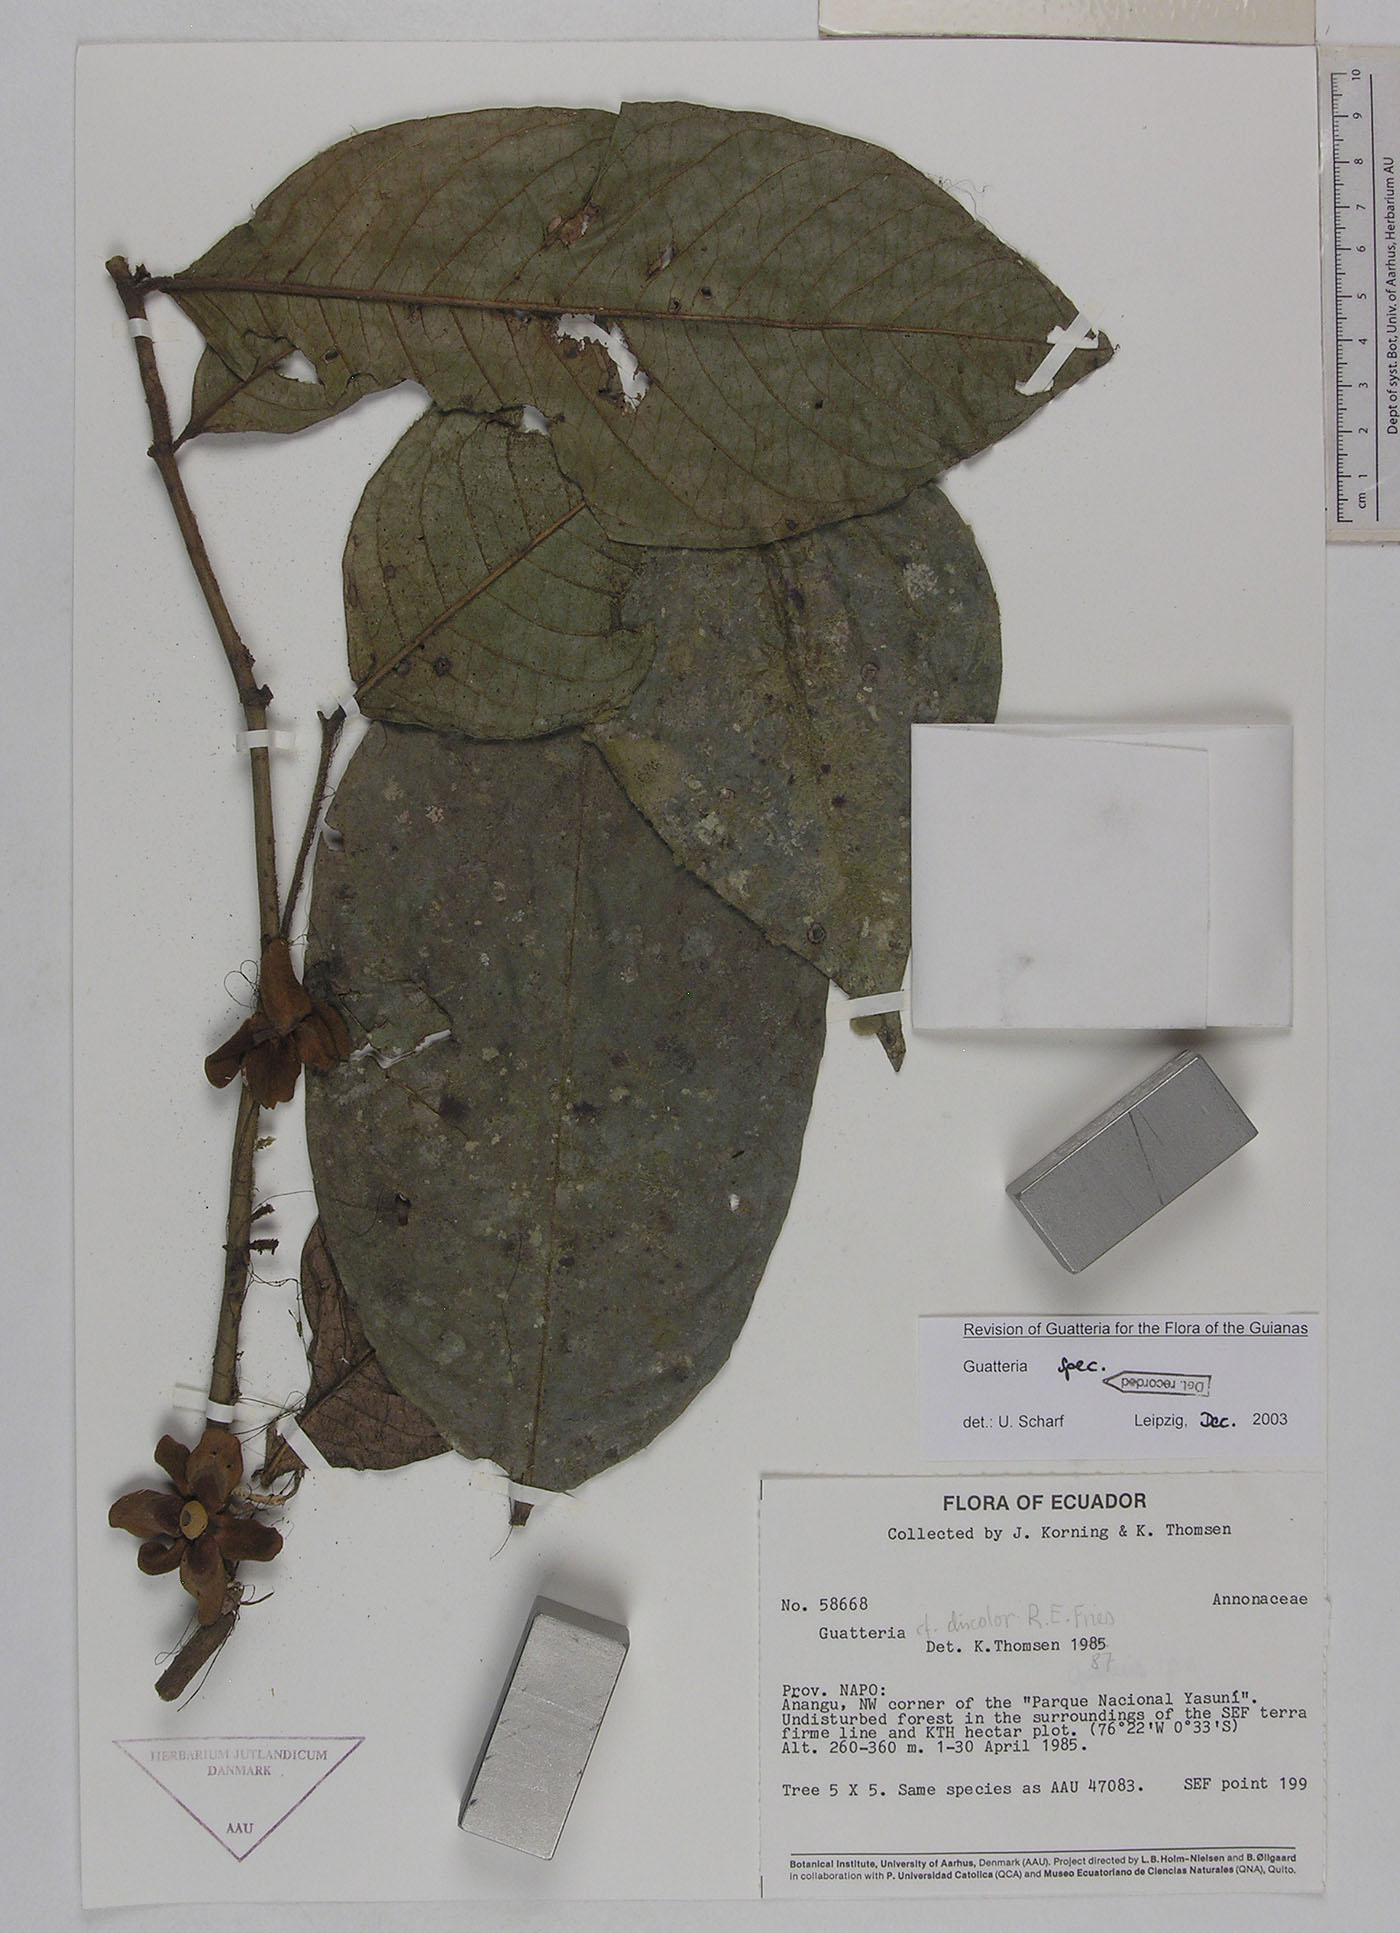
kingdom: Plantae
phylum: Tracheophyta
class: Magnoliopsida
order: Magnoliales
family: Annonaceae
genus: Guatteria
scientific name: Guatteria blepharophylla
